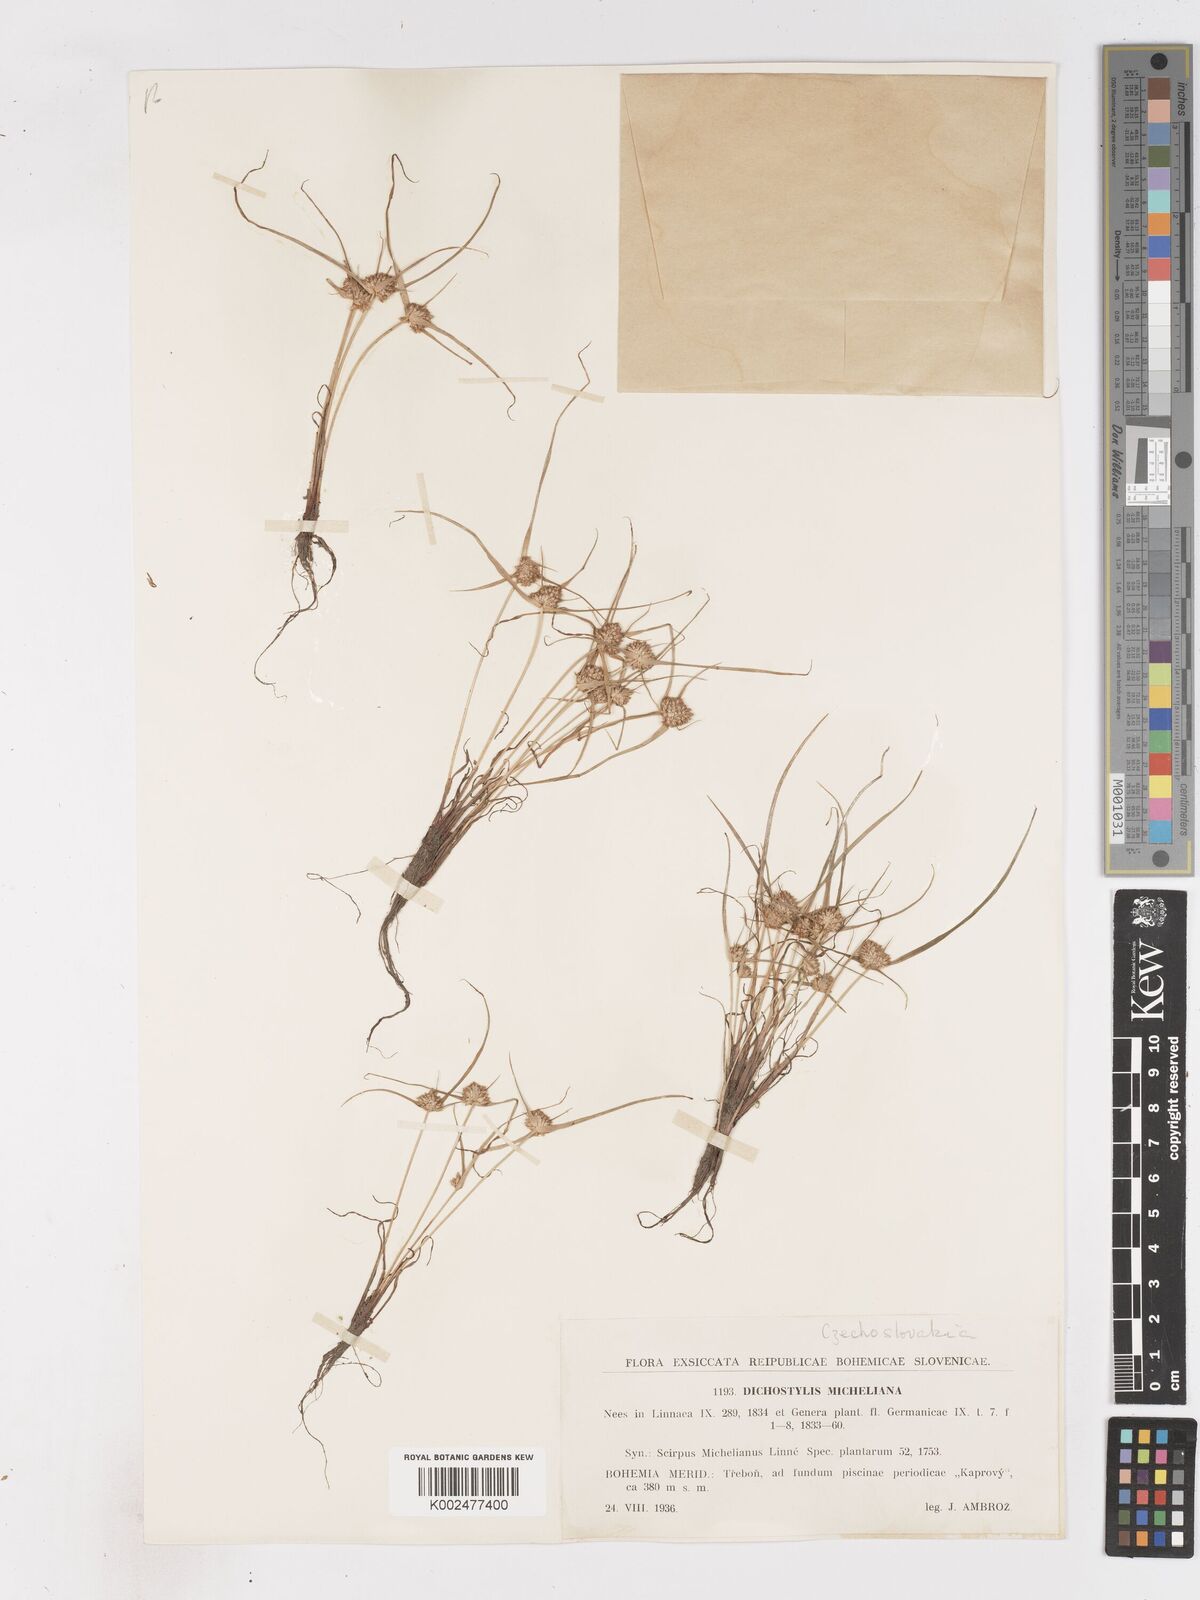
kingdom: Plantae
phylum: Tracheophyta
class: Liliopsida
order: Poales
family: Cyperaceae
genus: Cyperus
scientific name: Cyperus michelianus
